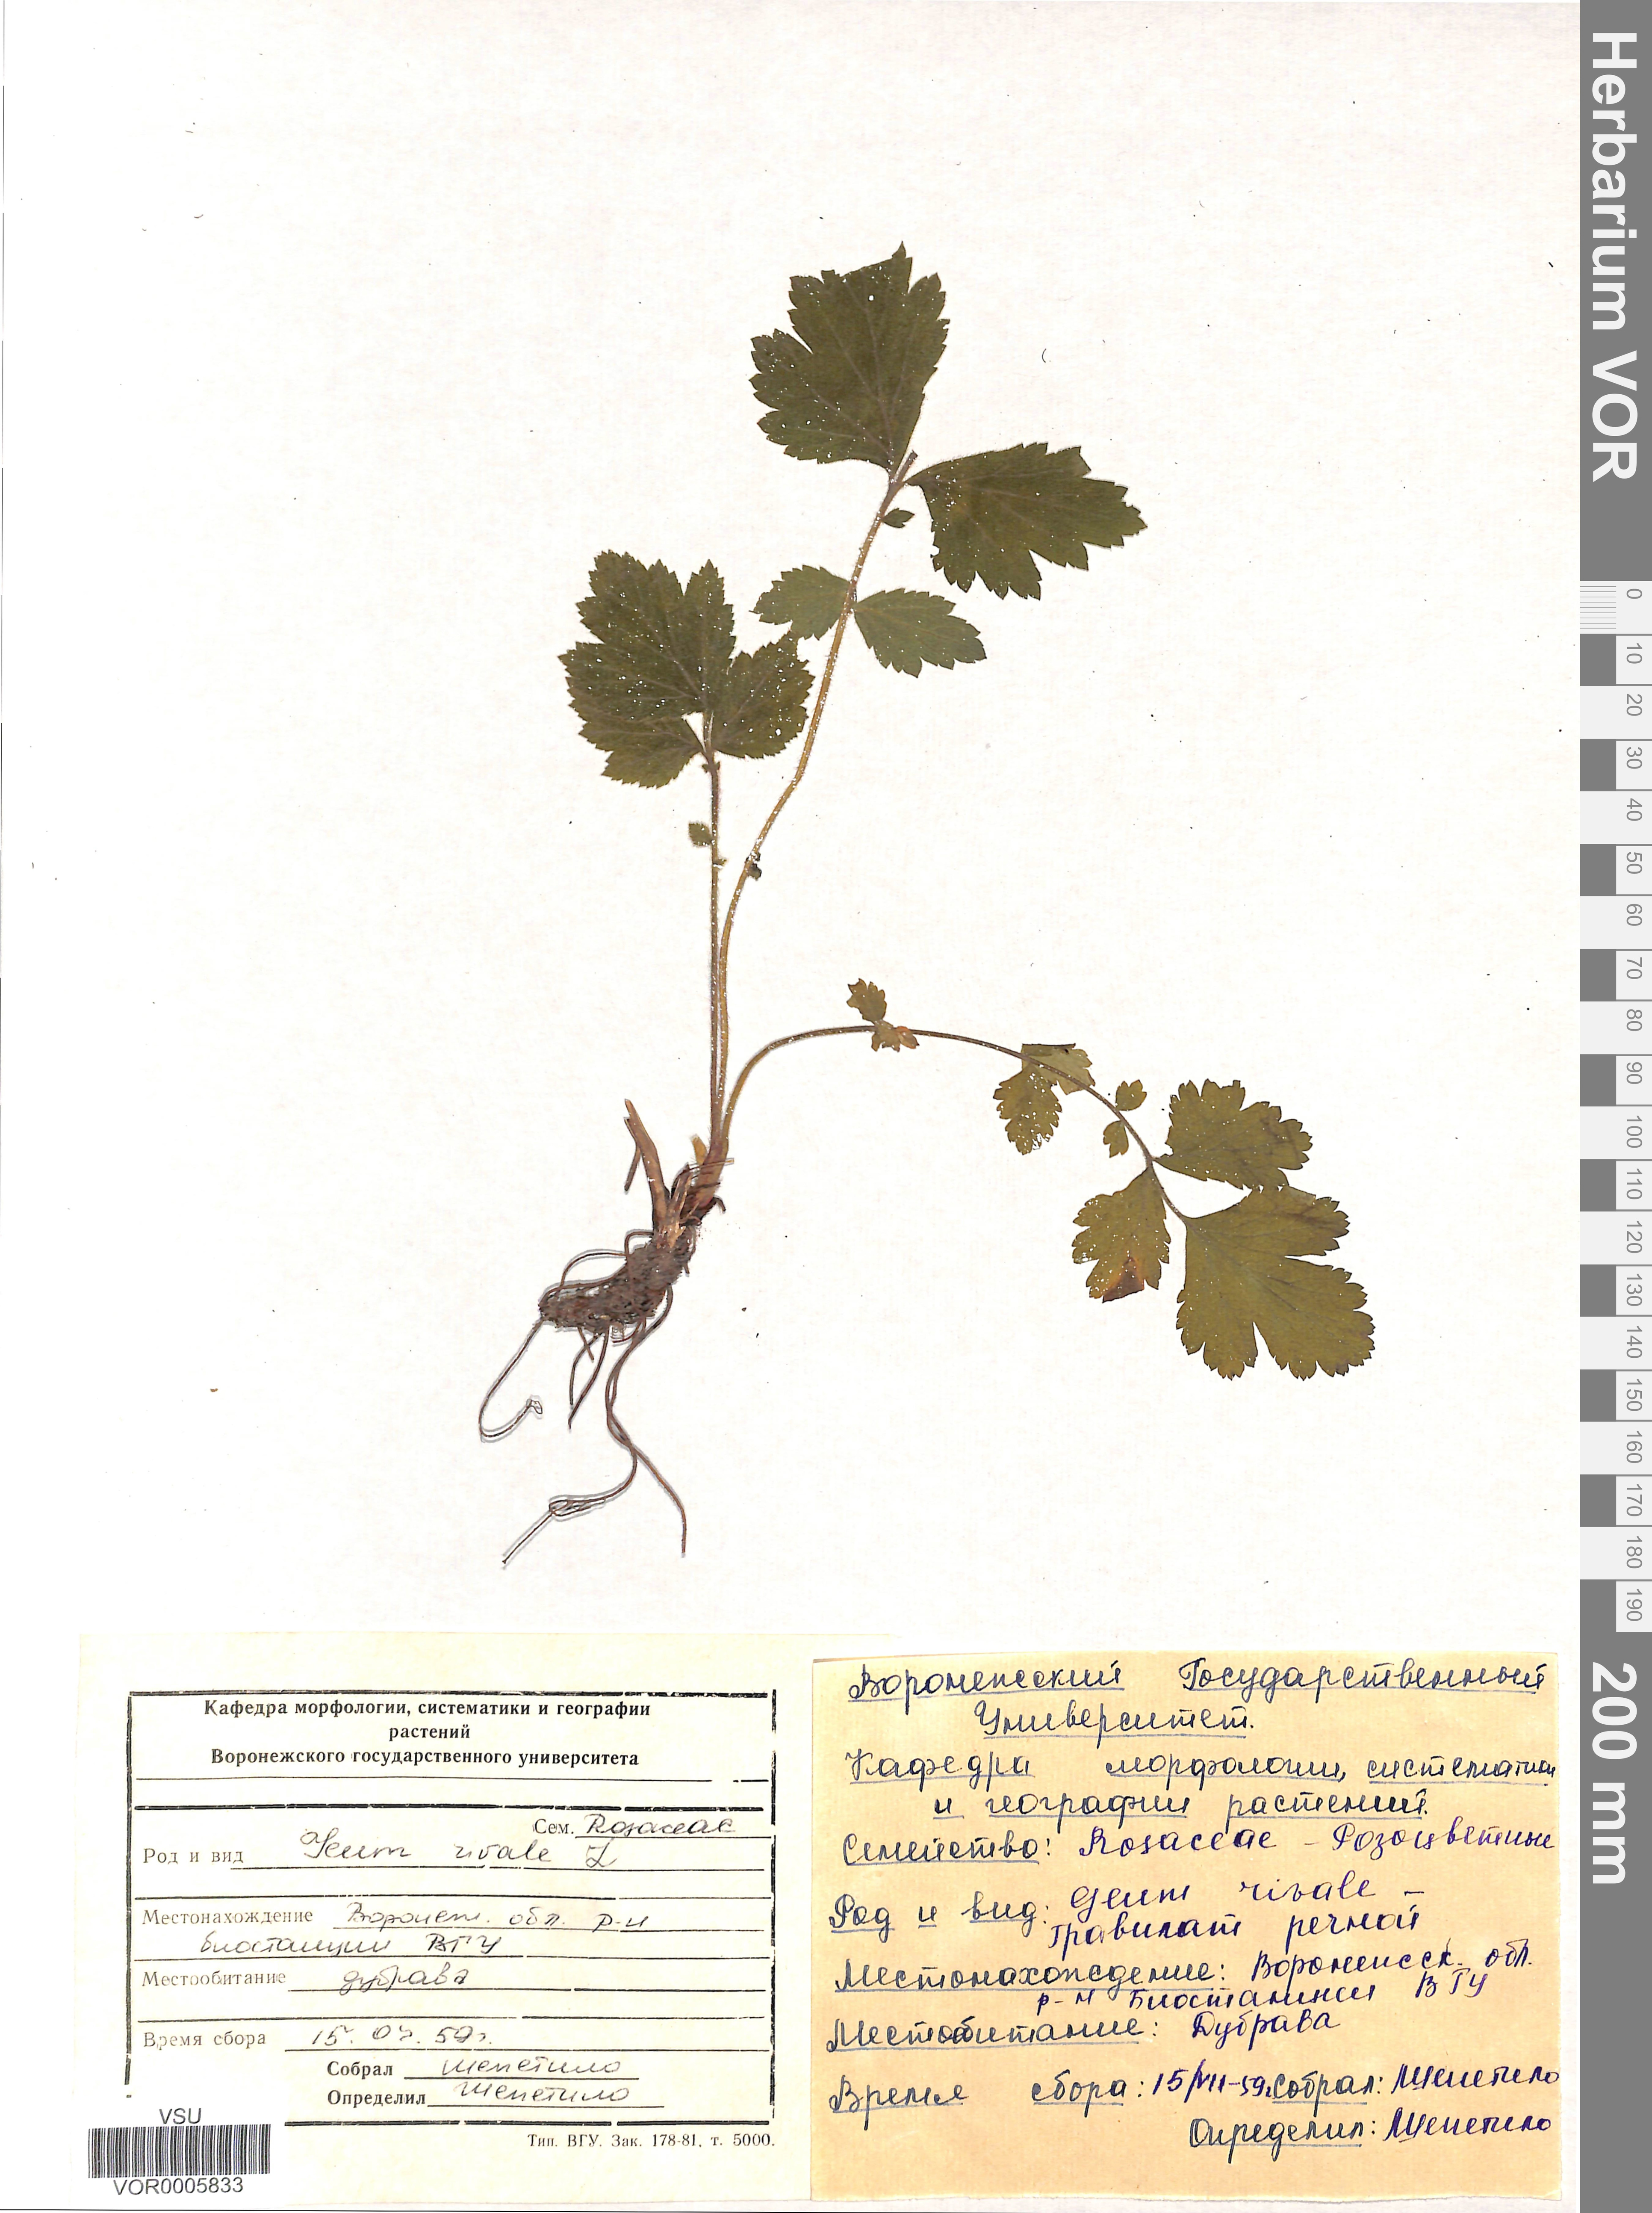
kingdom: Plantae
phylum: Tracheophyta
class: Magnoliopsida
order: Rosales
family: Rosaceae
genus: Geum
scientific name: Geum rivale
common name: Water avens
